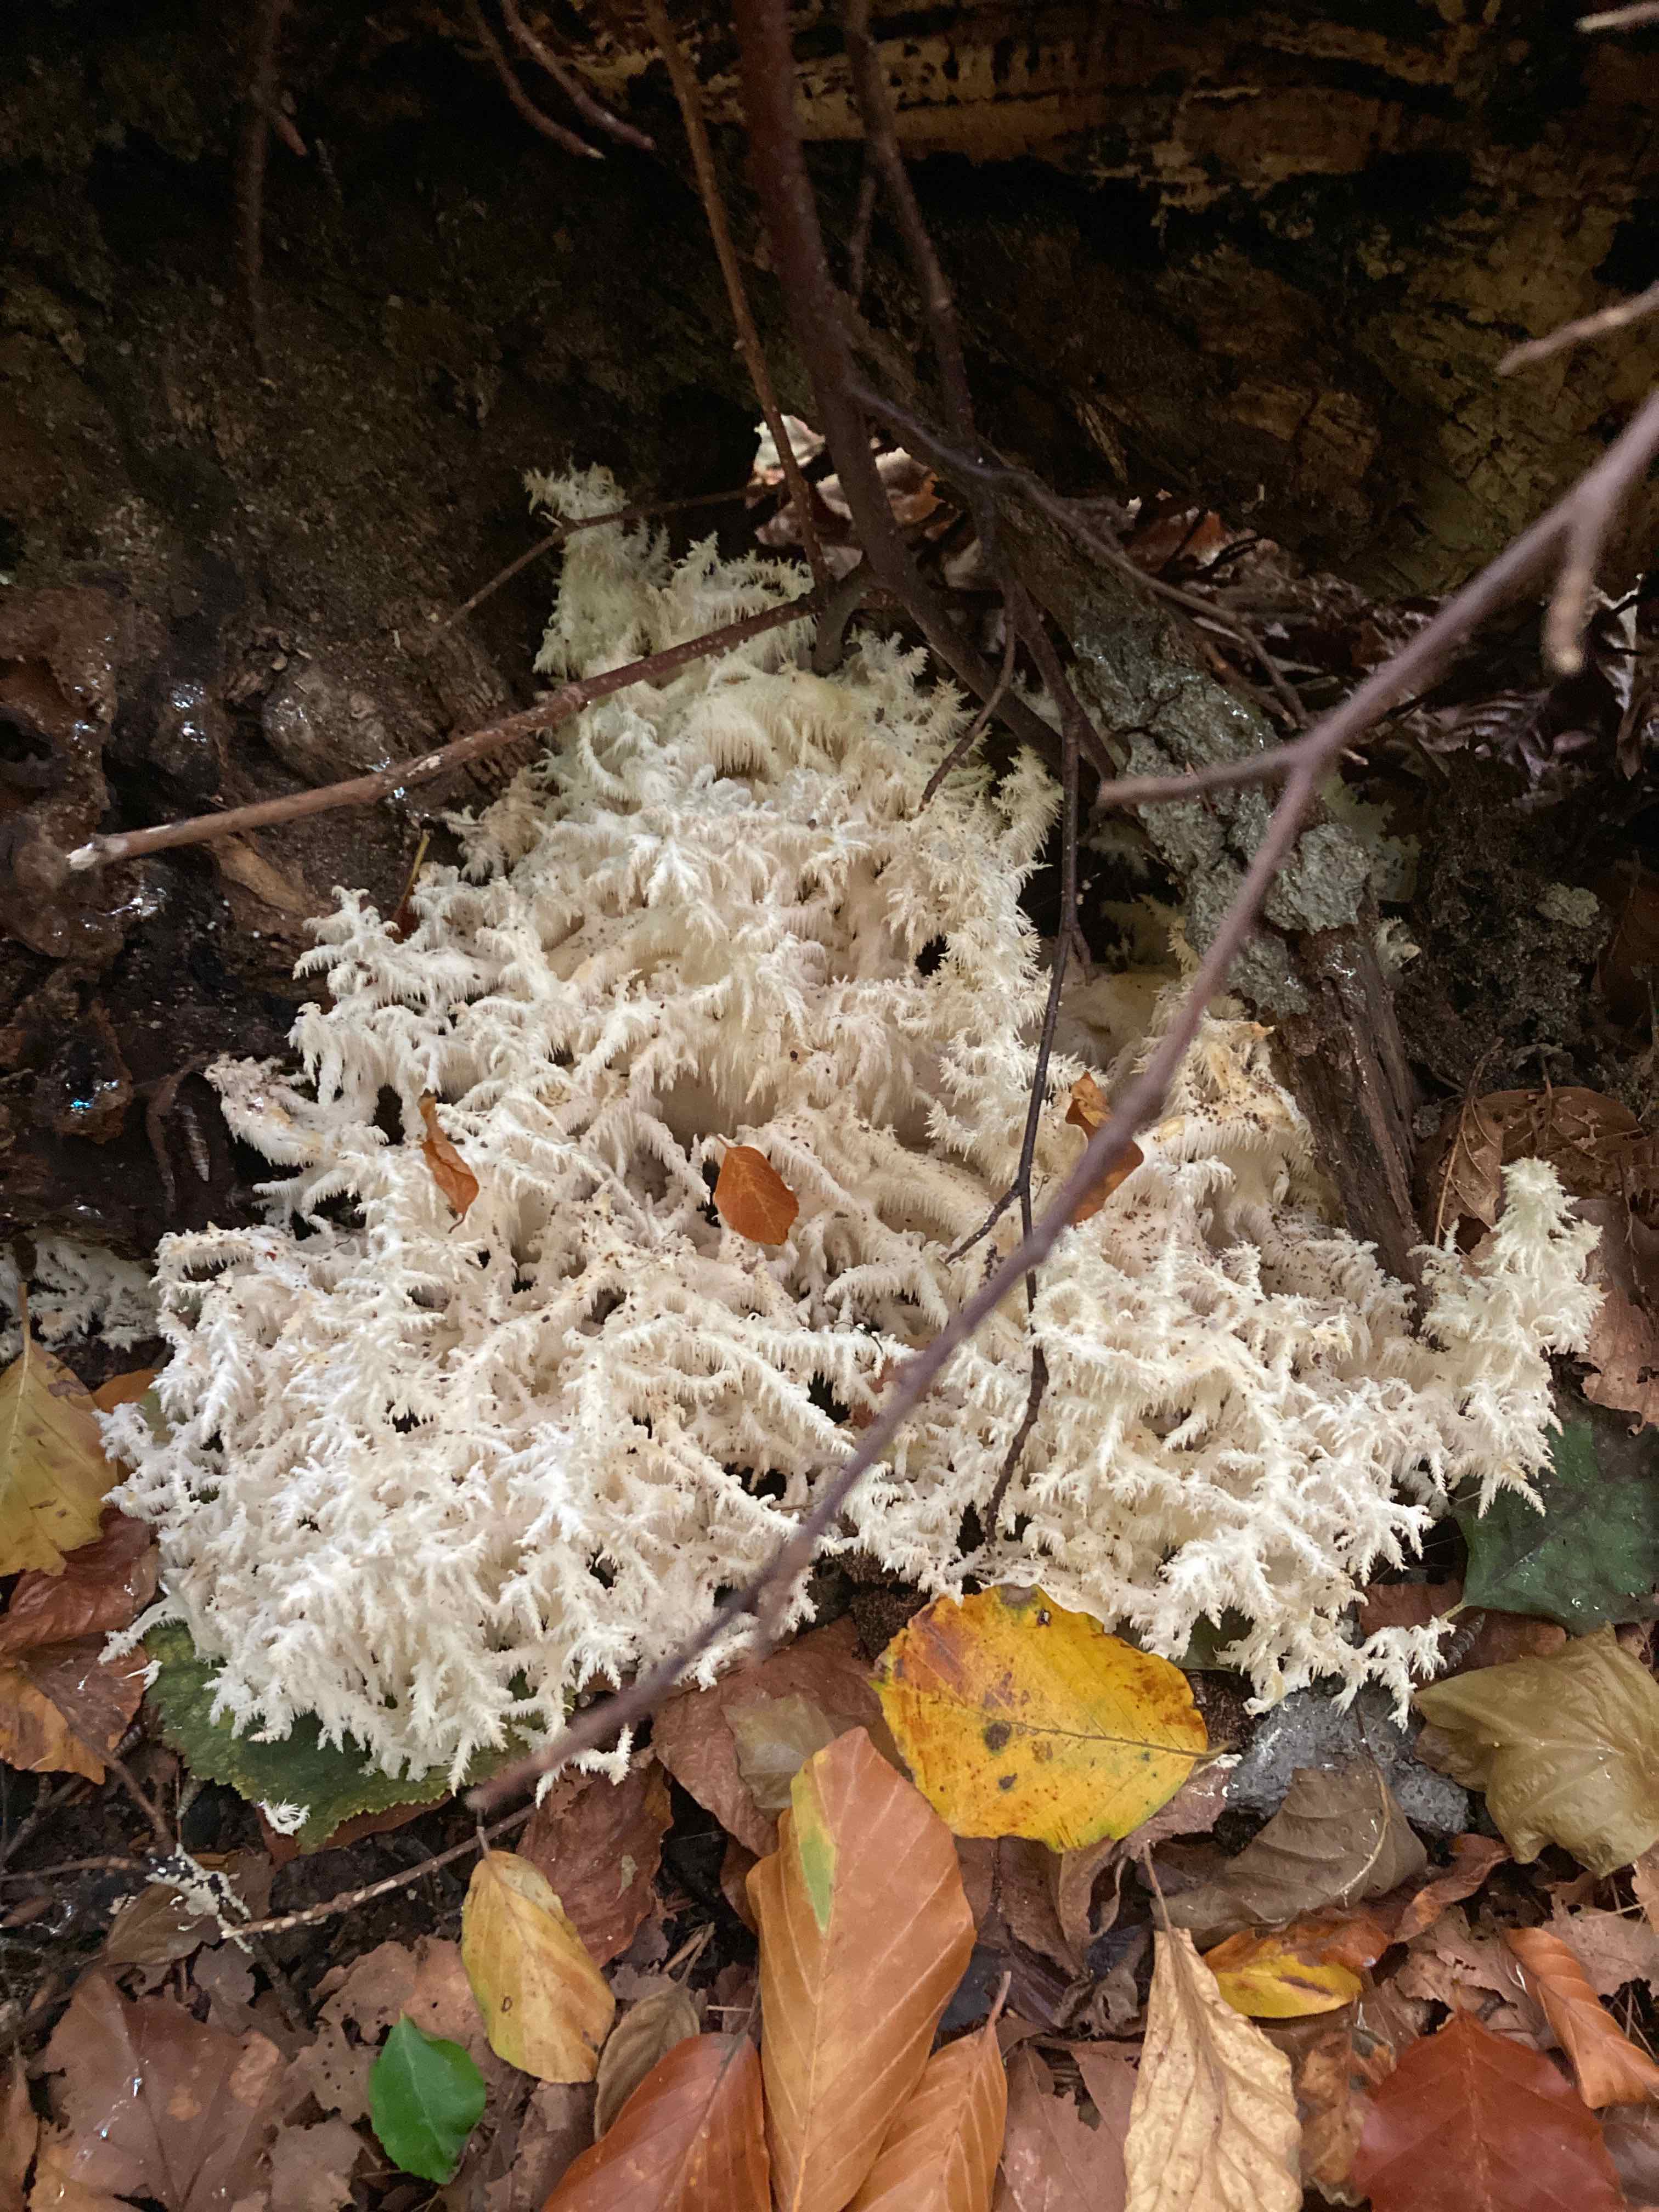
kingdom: Fungi
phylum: Basidiomycota
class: Agaricomycetes
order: Russulales
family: Hericiaceae
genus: Hericium
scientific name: Hericium coralloides
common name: koralpigsvamp
